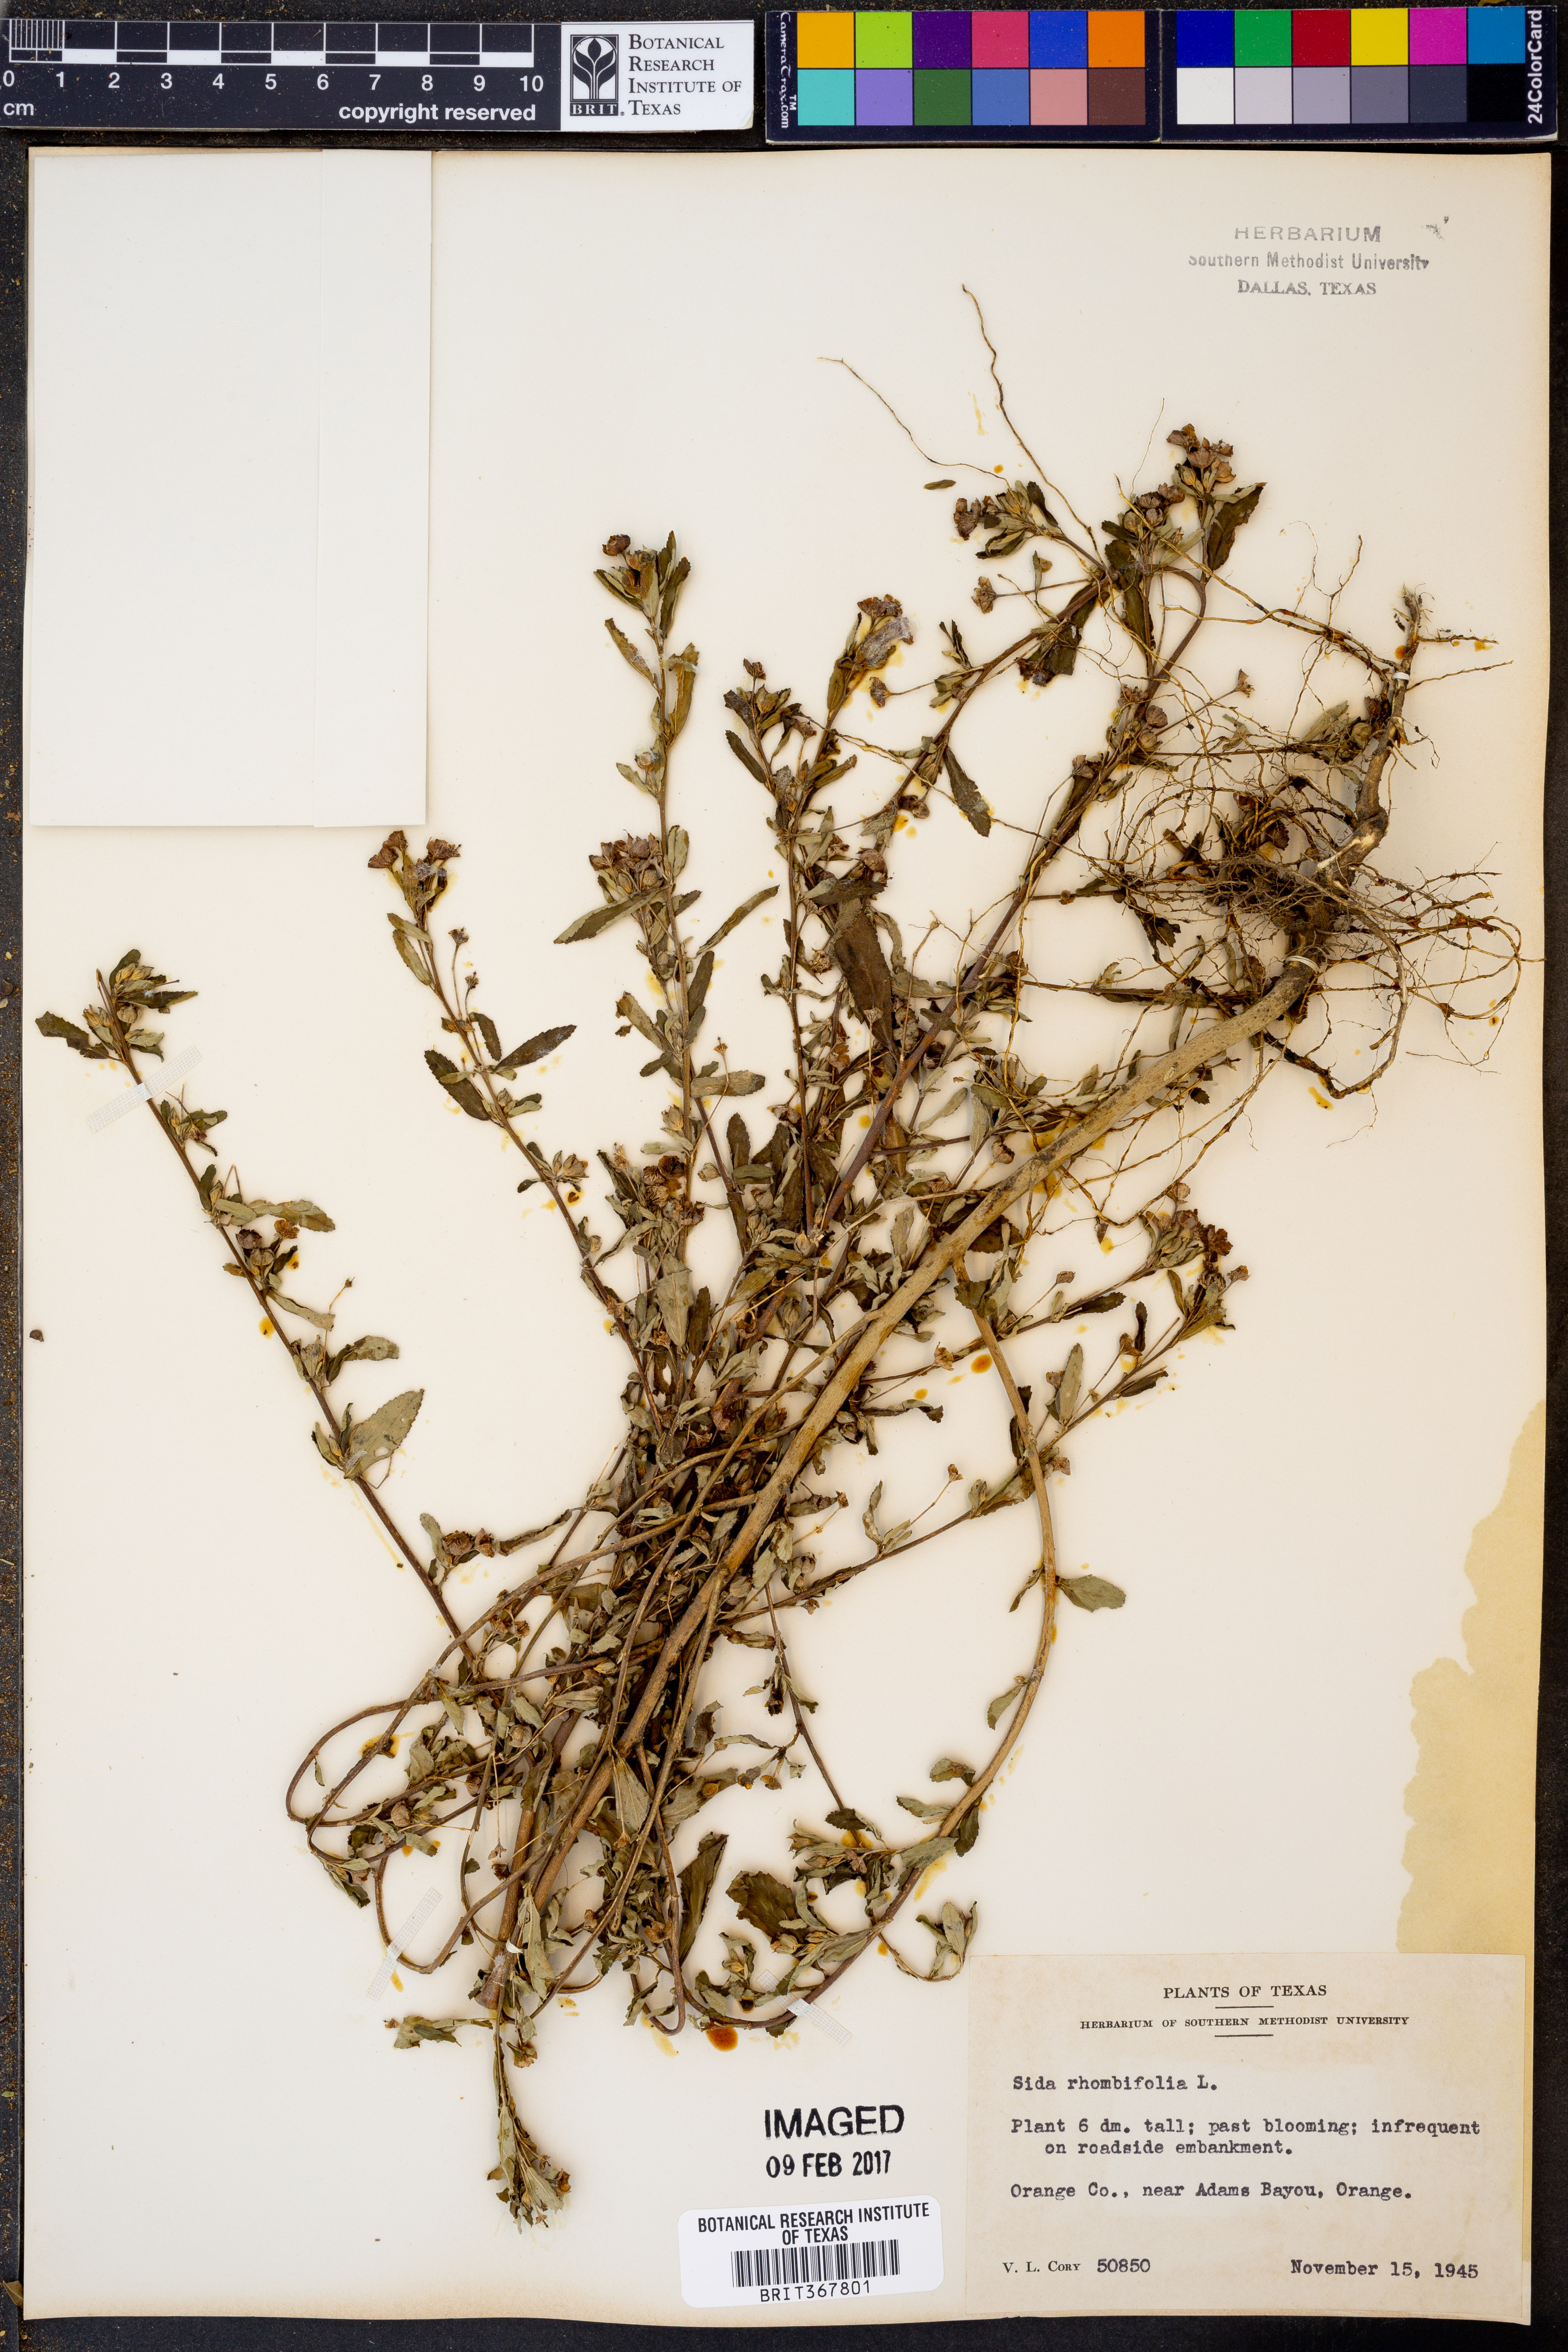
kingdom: Plantae
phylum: Tracheophyta
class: Magnoliopsida
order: Malvales
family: Malvaceae
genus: Sida
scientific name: Sida rhombifolia
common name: Queensland-hemp
